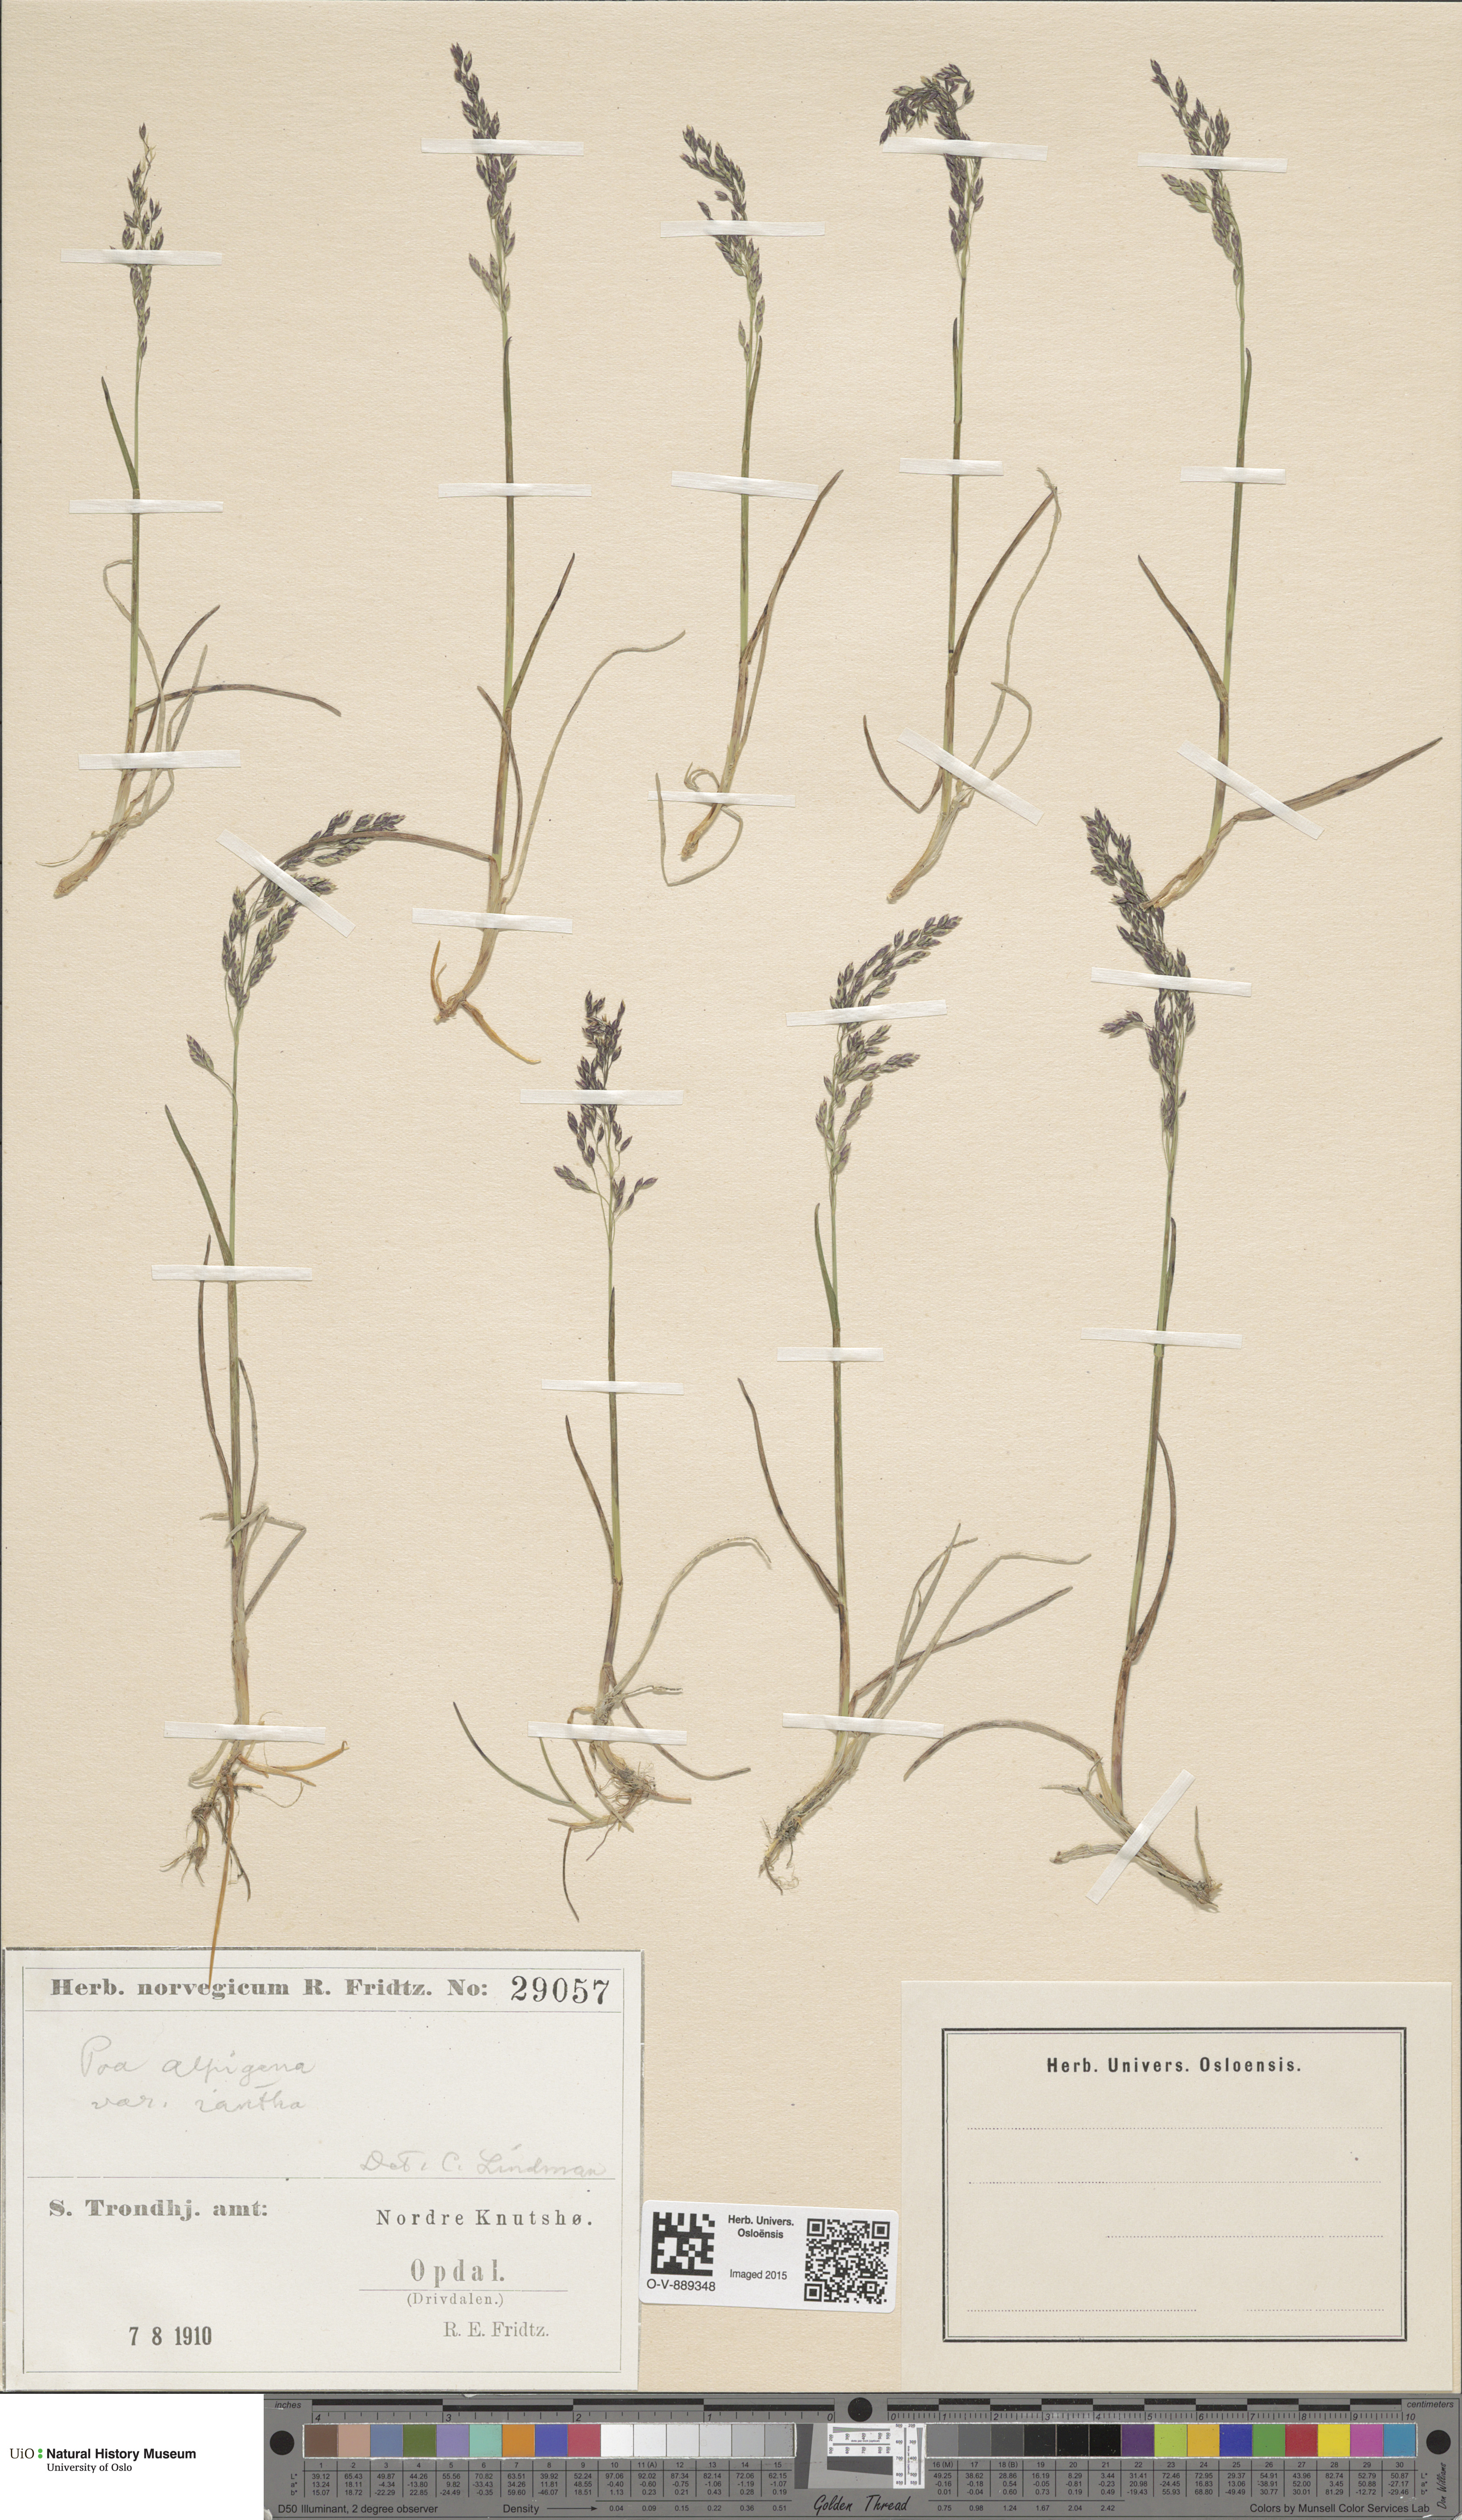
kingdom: Plantae
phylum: Tracheophyta
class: Liliopsida
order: Poales
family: Poaceae
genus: Poa
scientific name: Poa alpigena
